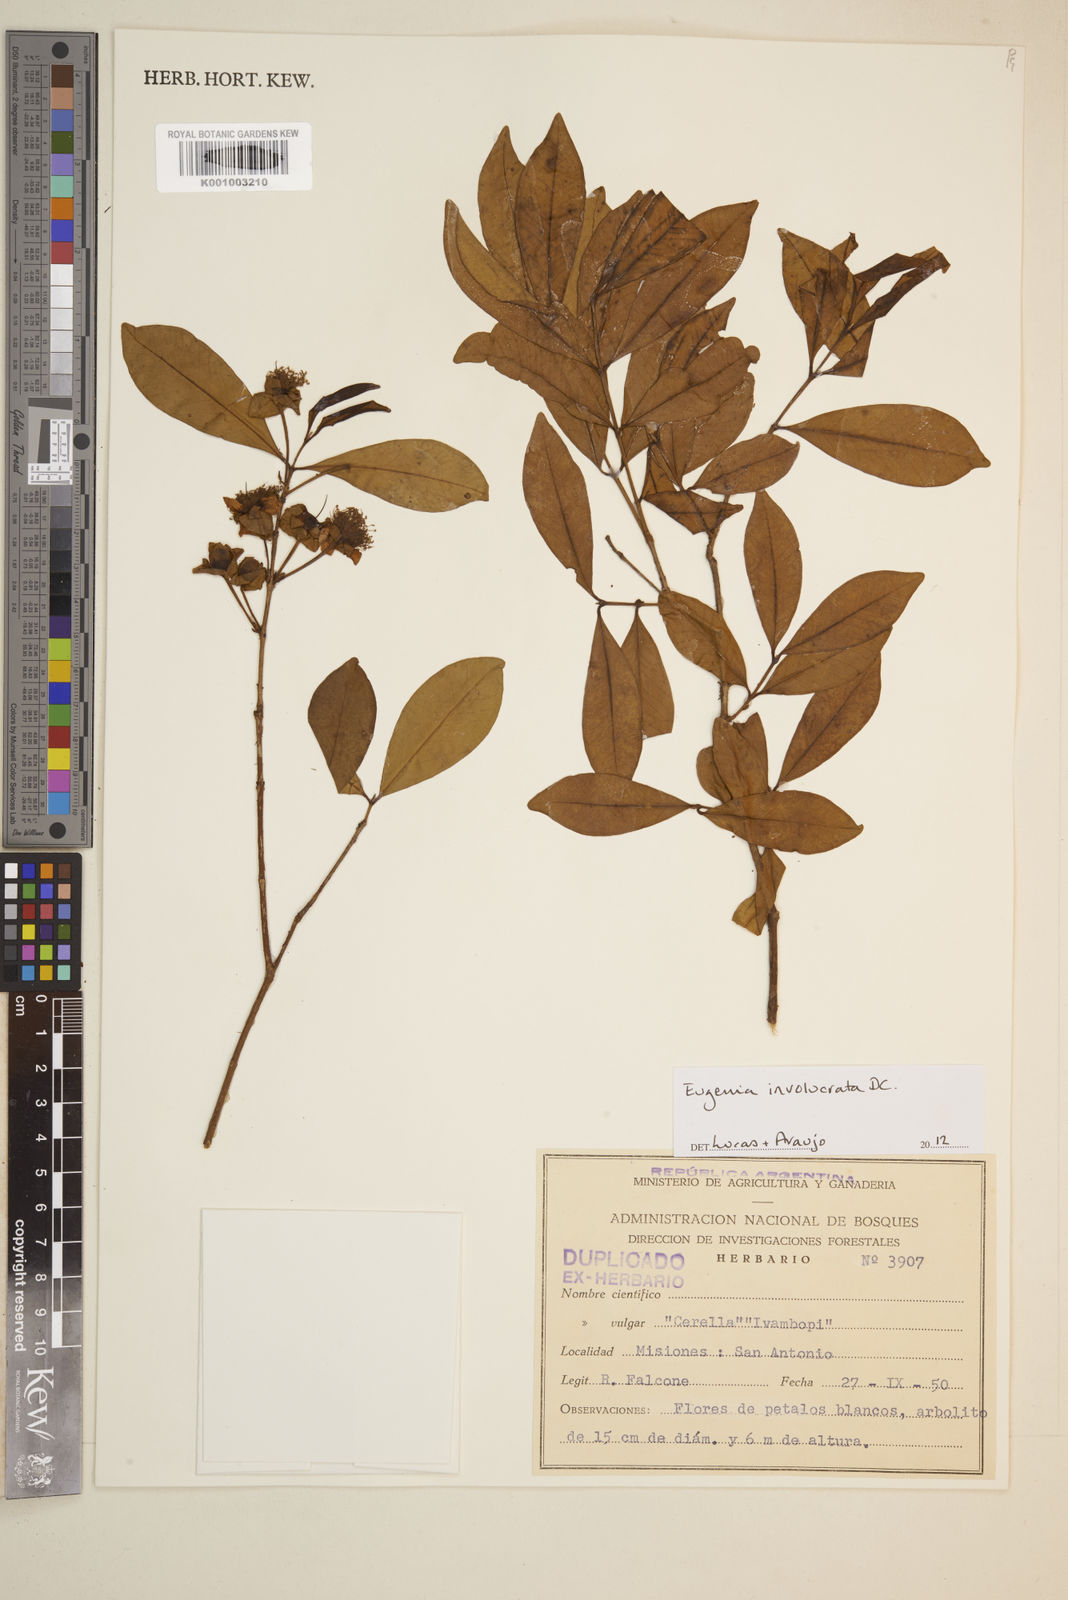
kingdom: Plantae
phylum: Tracheophyta
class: Magnoliopsida
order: Myrtales
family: Myrtaceae
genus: Eugenia
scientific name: Eugenia involucrata
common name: Cherry-of-the-rio grande
